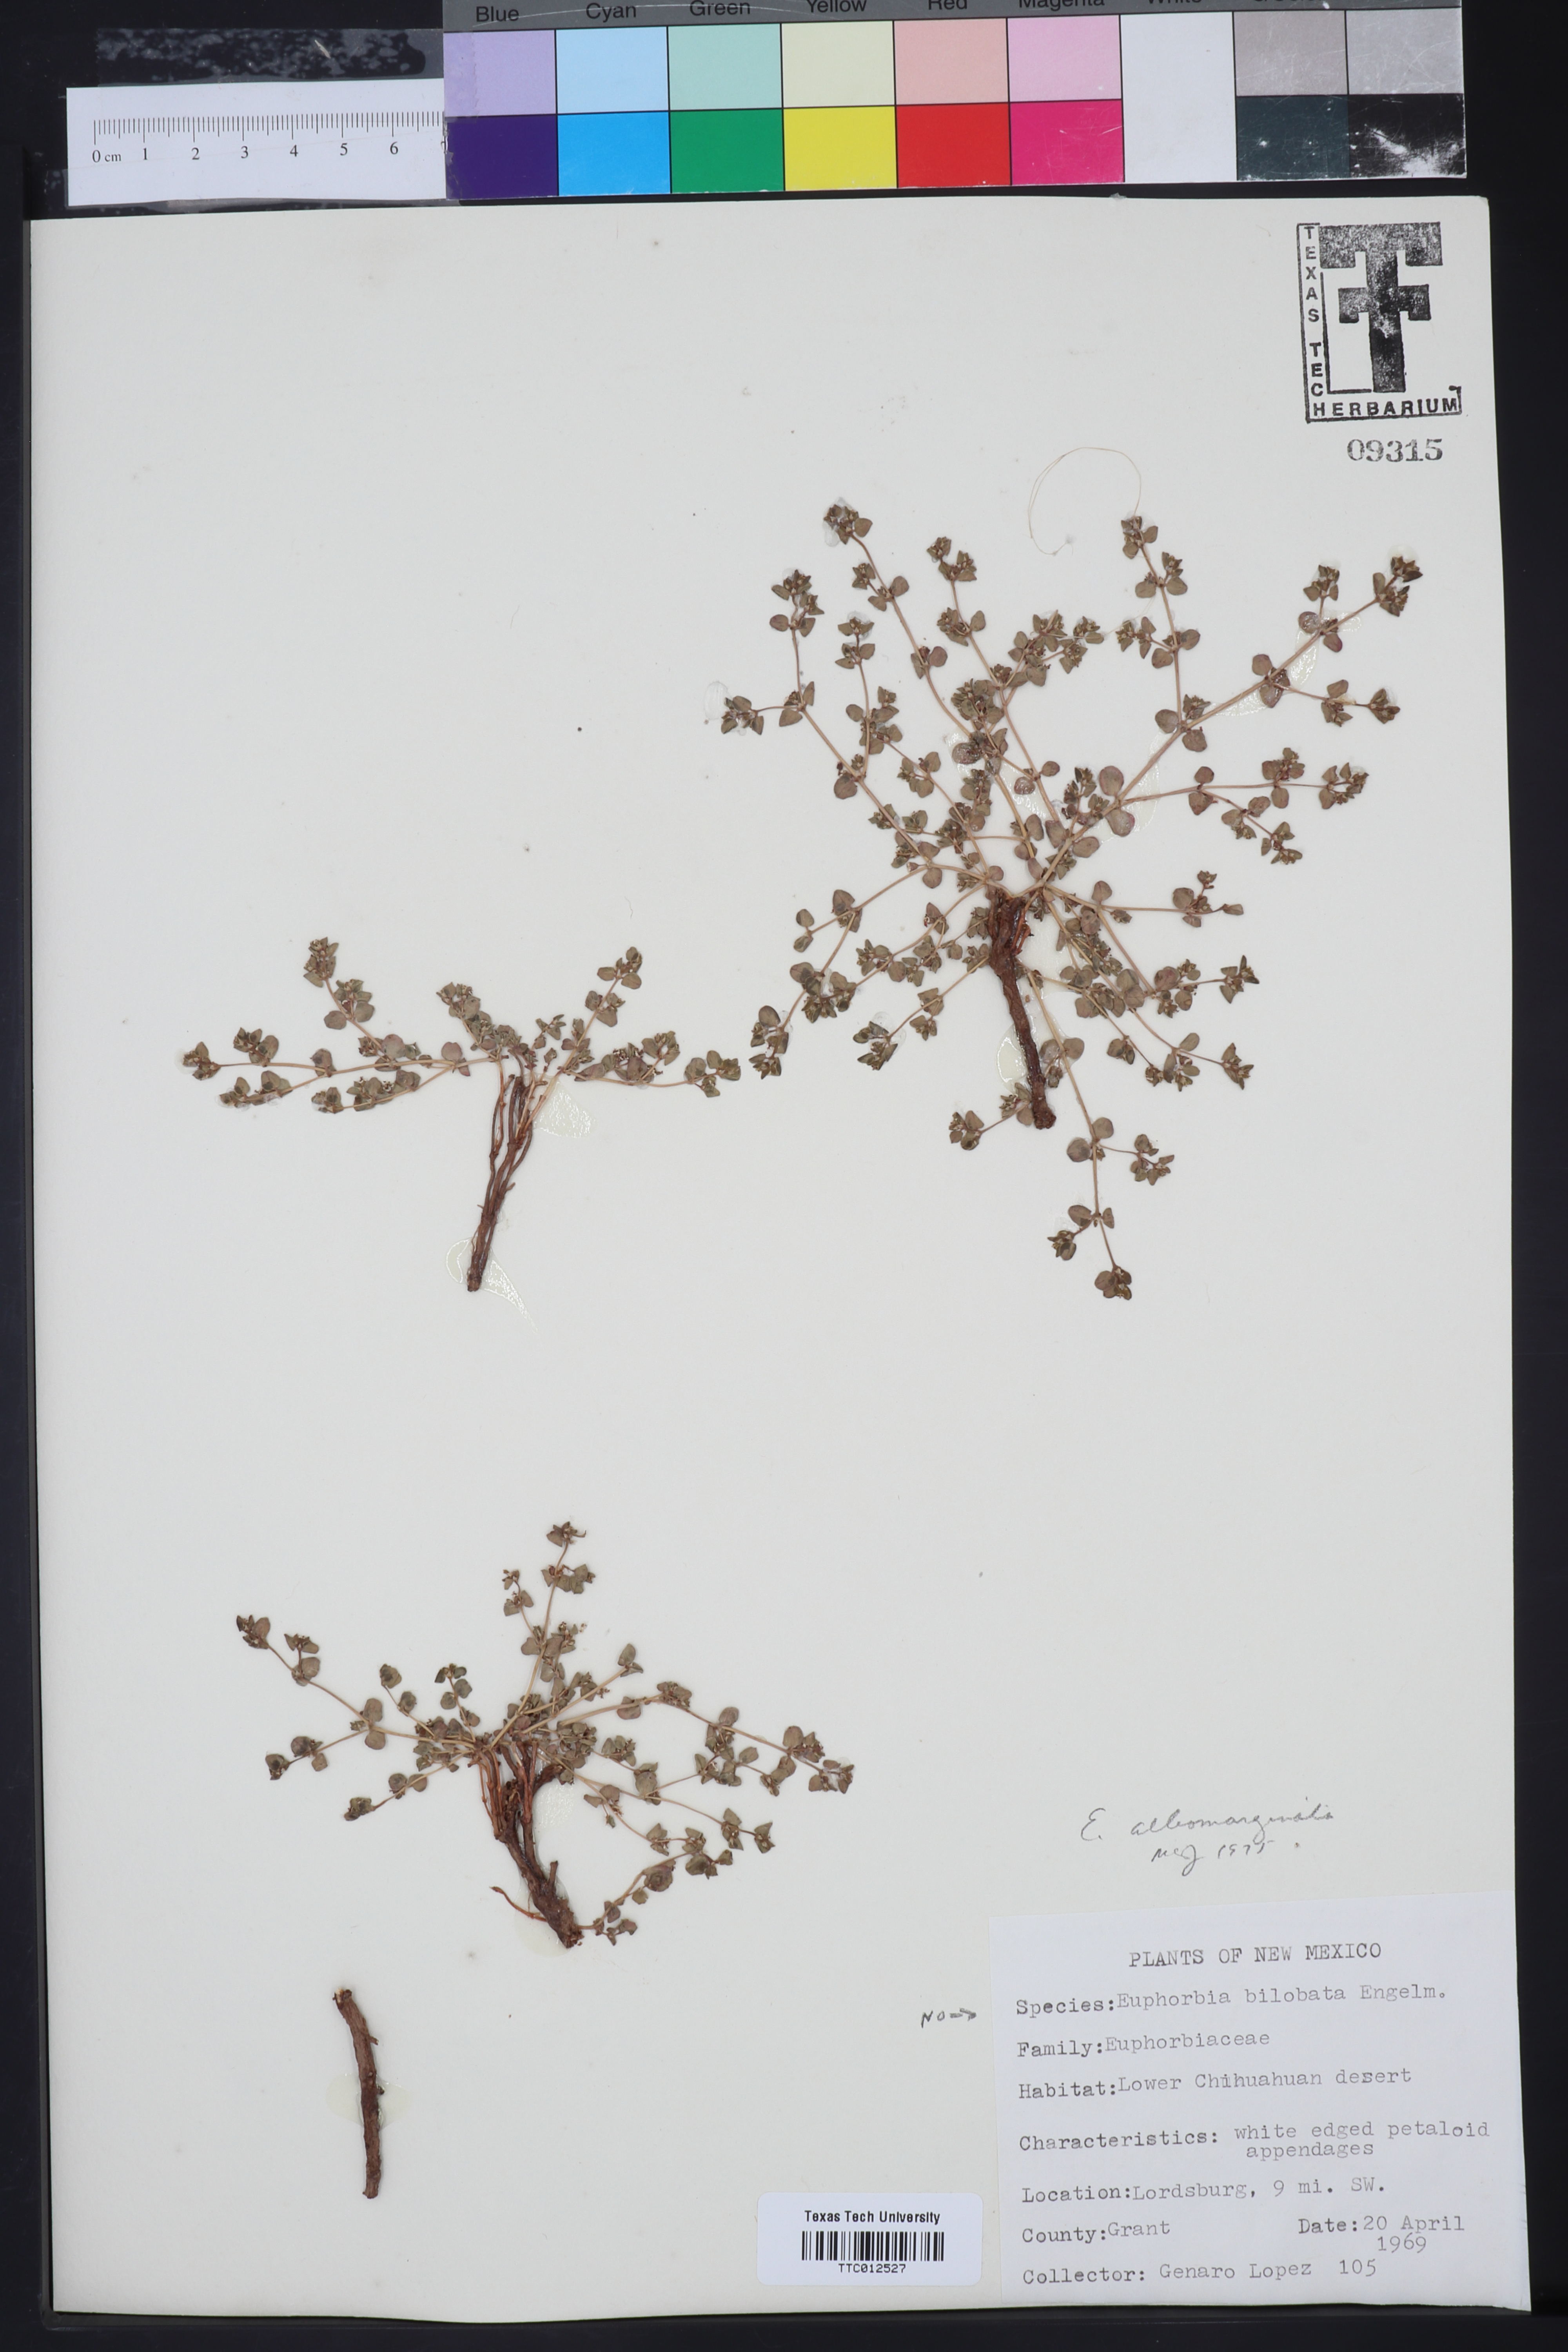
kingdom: Plantae
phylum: Tracheophyta
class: Magnoliopsida
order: Malpighiales
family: Euphorbiaceae
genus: Euphorbia
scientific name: Euphorbia
